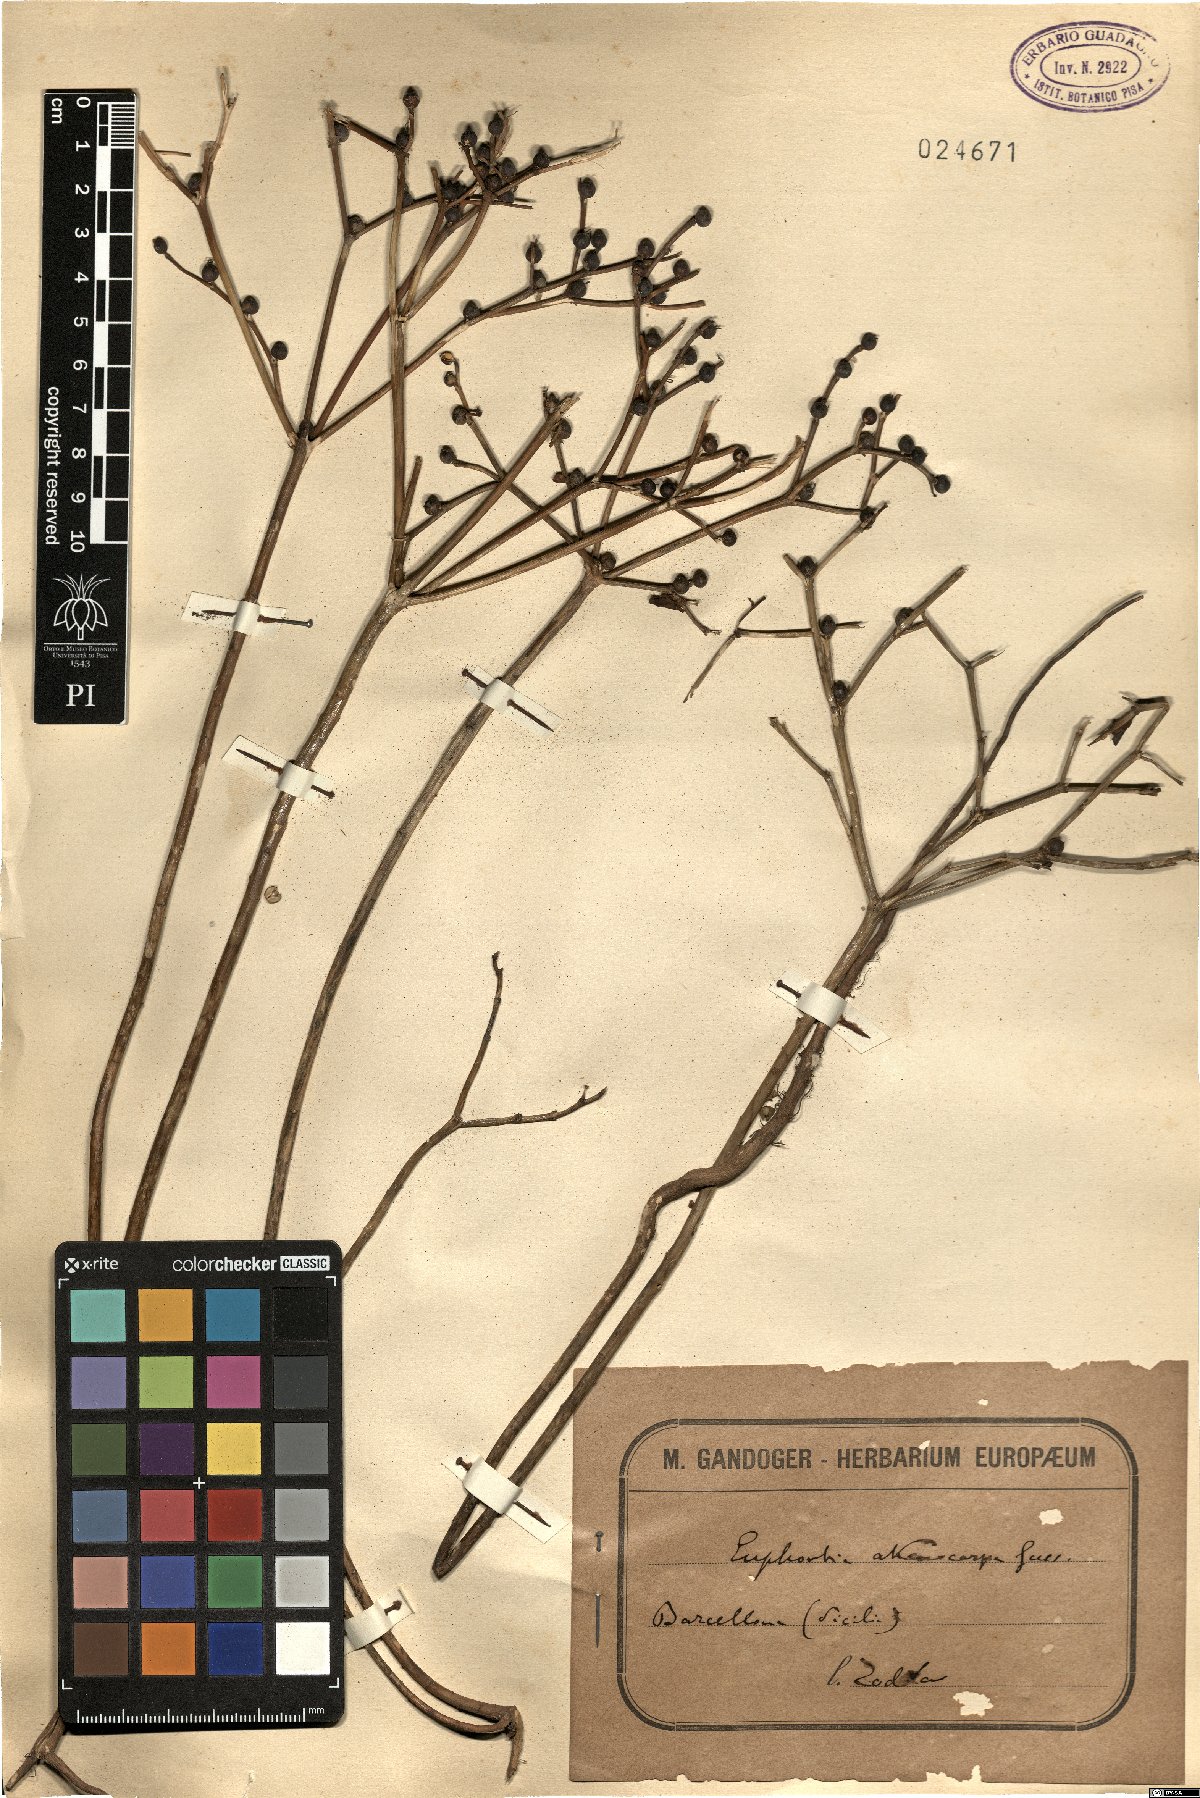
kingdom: Plantae
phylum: Tracheophyta
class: Magnoliopsida
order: Malpighiales
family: Euphorbiaceae
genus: Euphorbia
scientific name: Euphorbia macrocarpa
